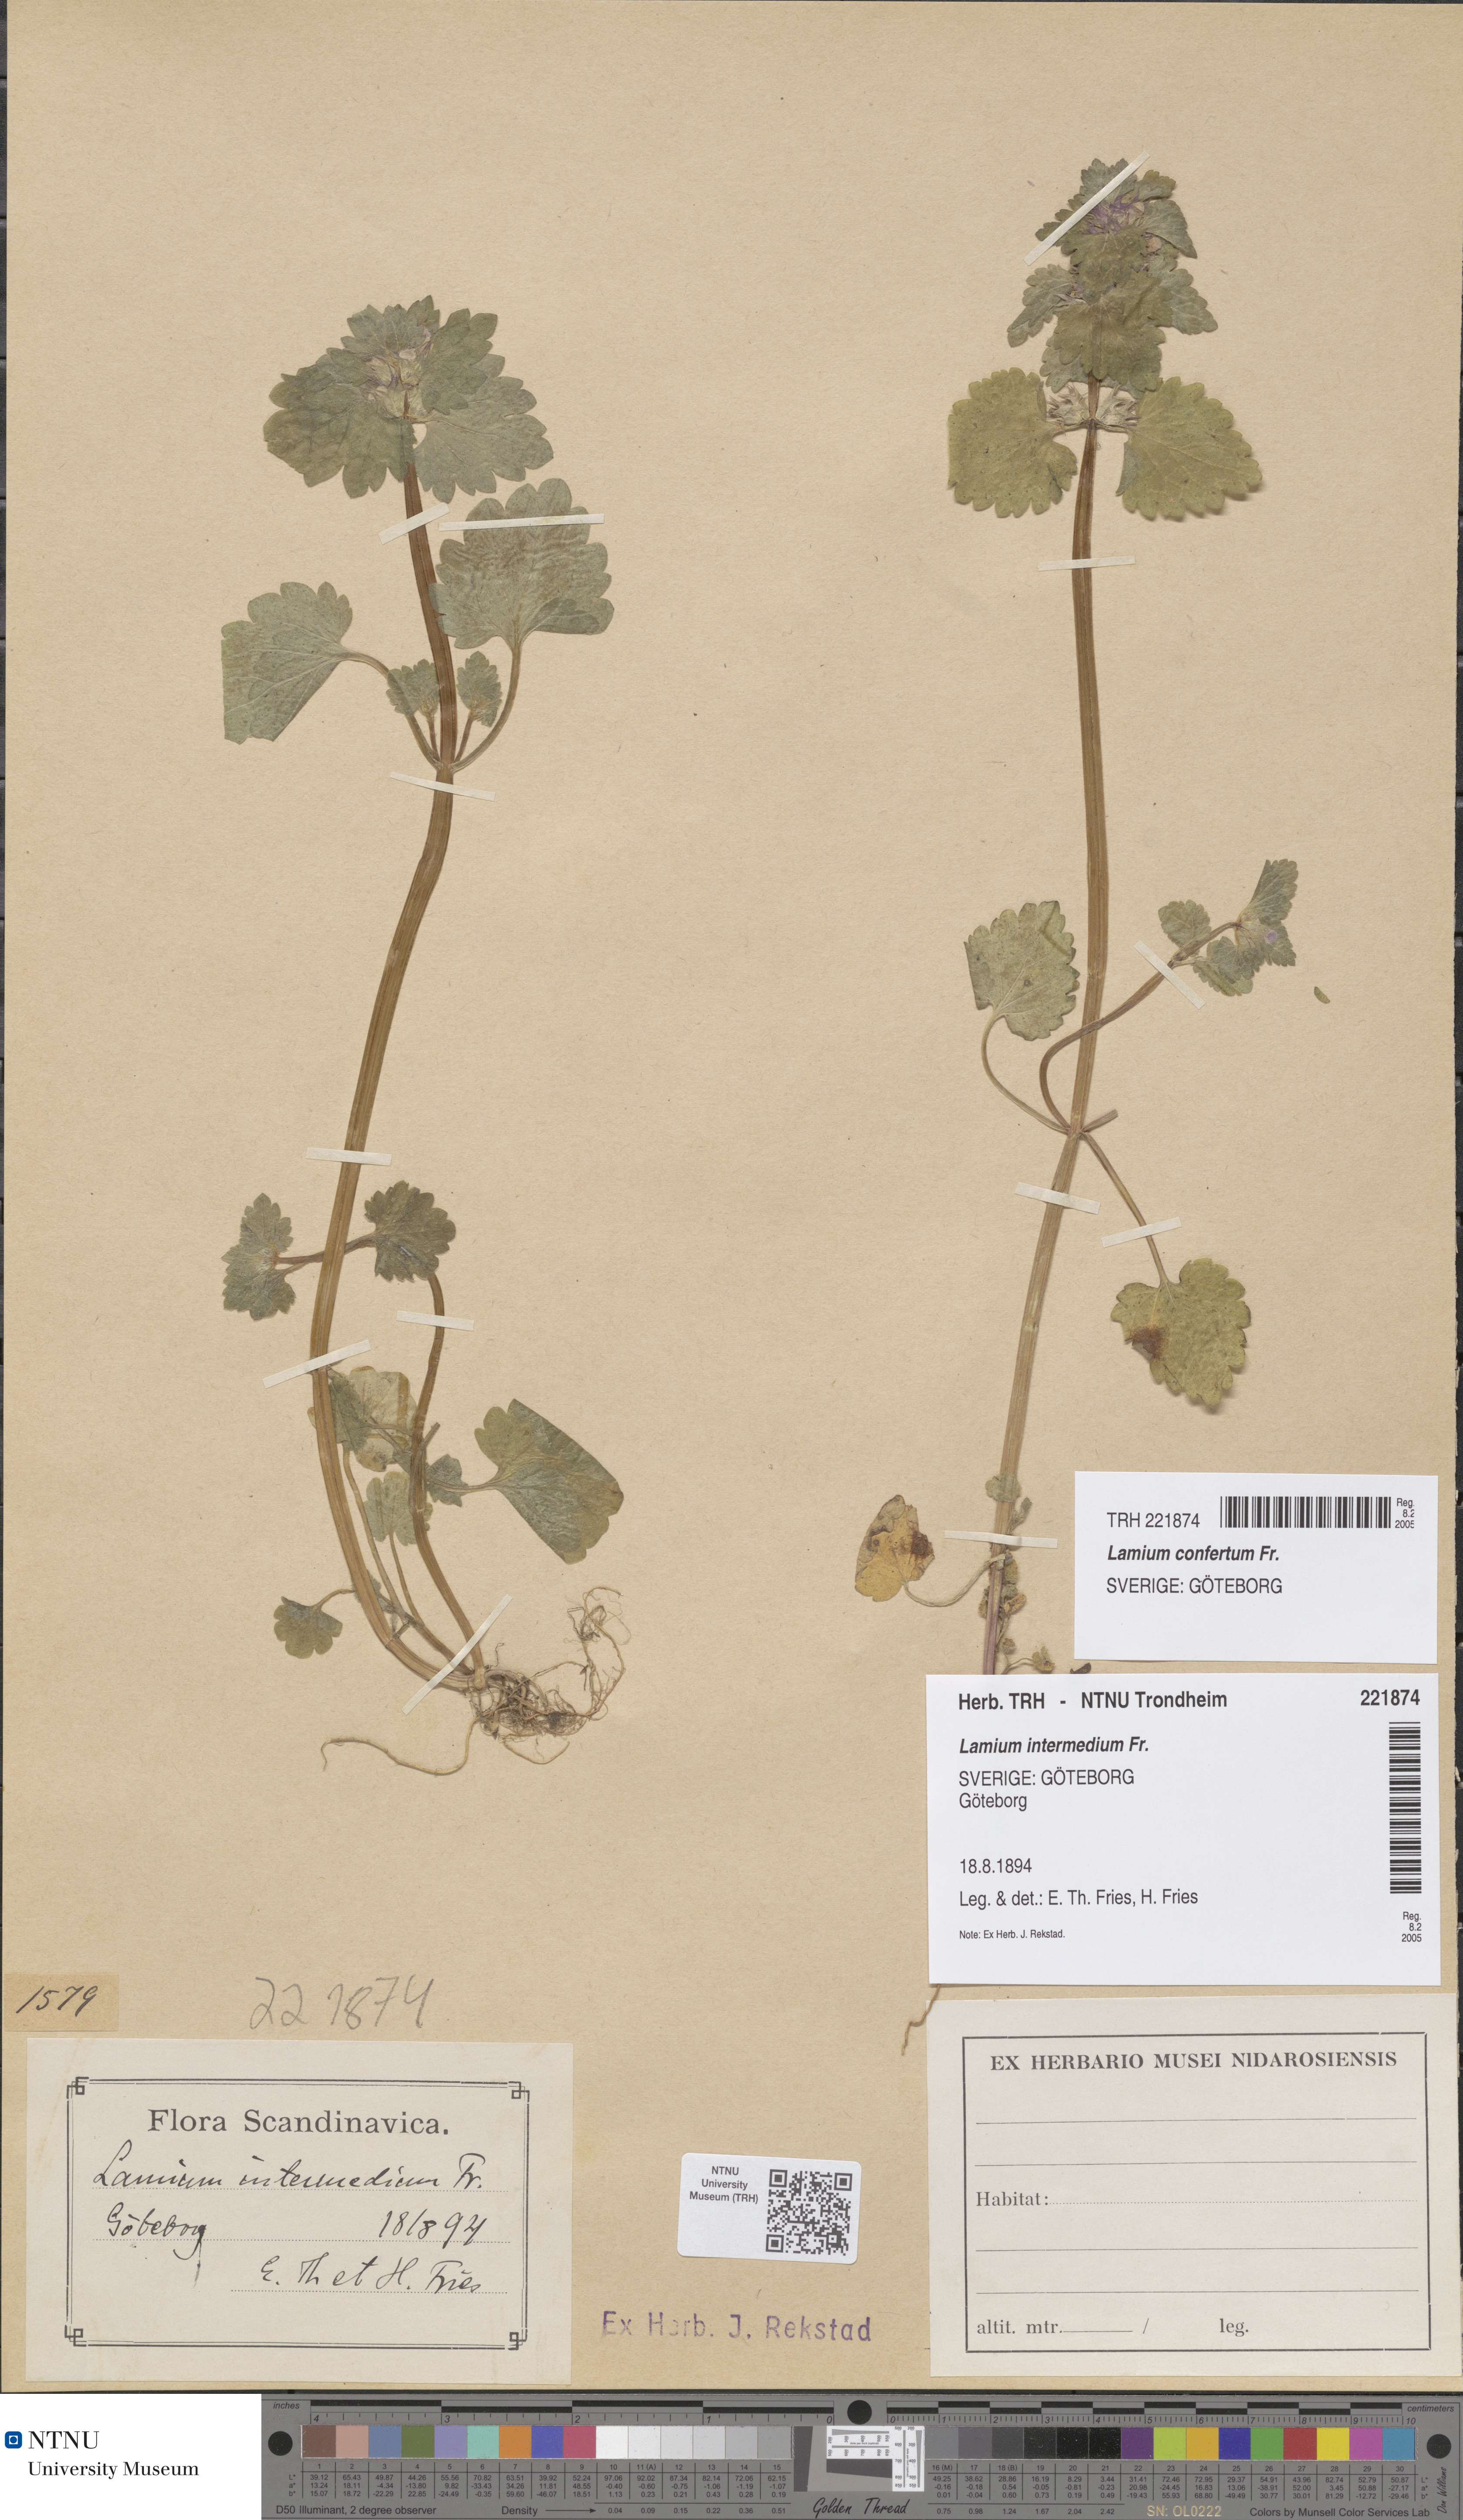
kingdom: Plantae
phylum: Tracheophyta
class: Magnoliopsida
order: Lamiales
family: Lamiaceae
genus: Lamium
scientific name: Lamium confertum
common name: Northern dead-nettle
